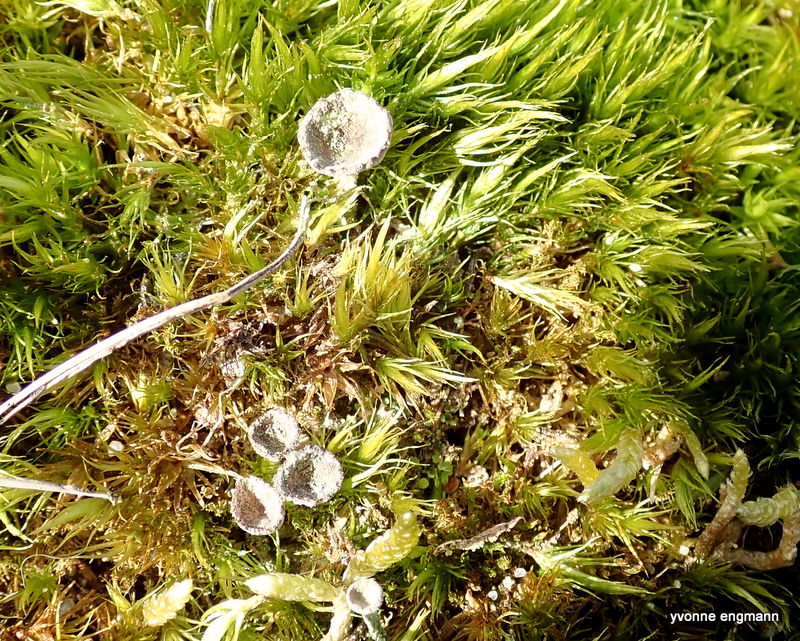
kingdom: Fungi
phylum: Ascomycota
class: Lecanoromycetes
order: Lecanorales
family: Cladoniaceae
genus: Cladonia
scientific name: Cladonia
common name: brungrøn bægerlav
